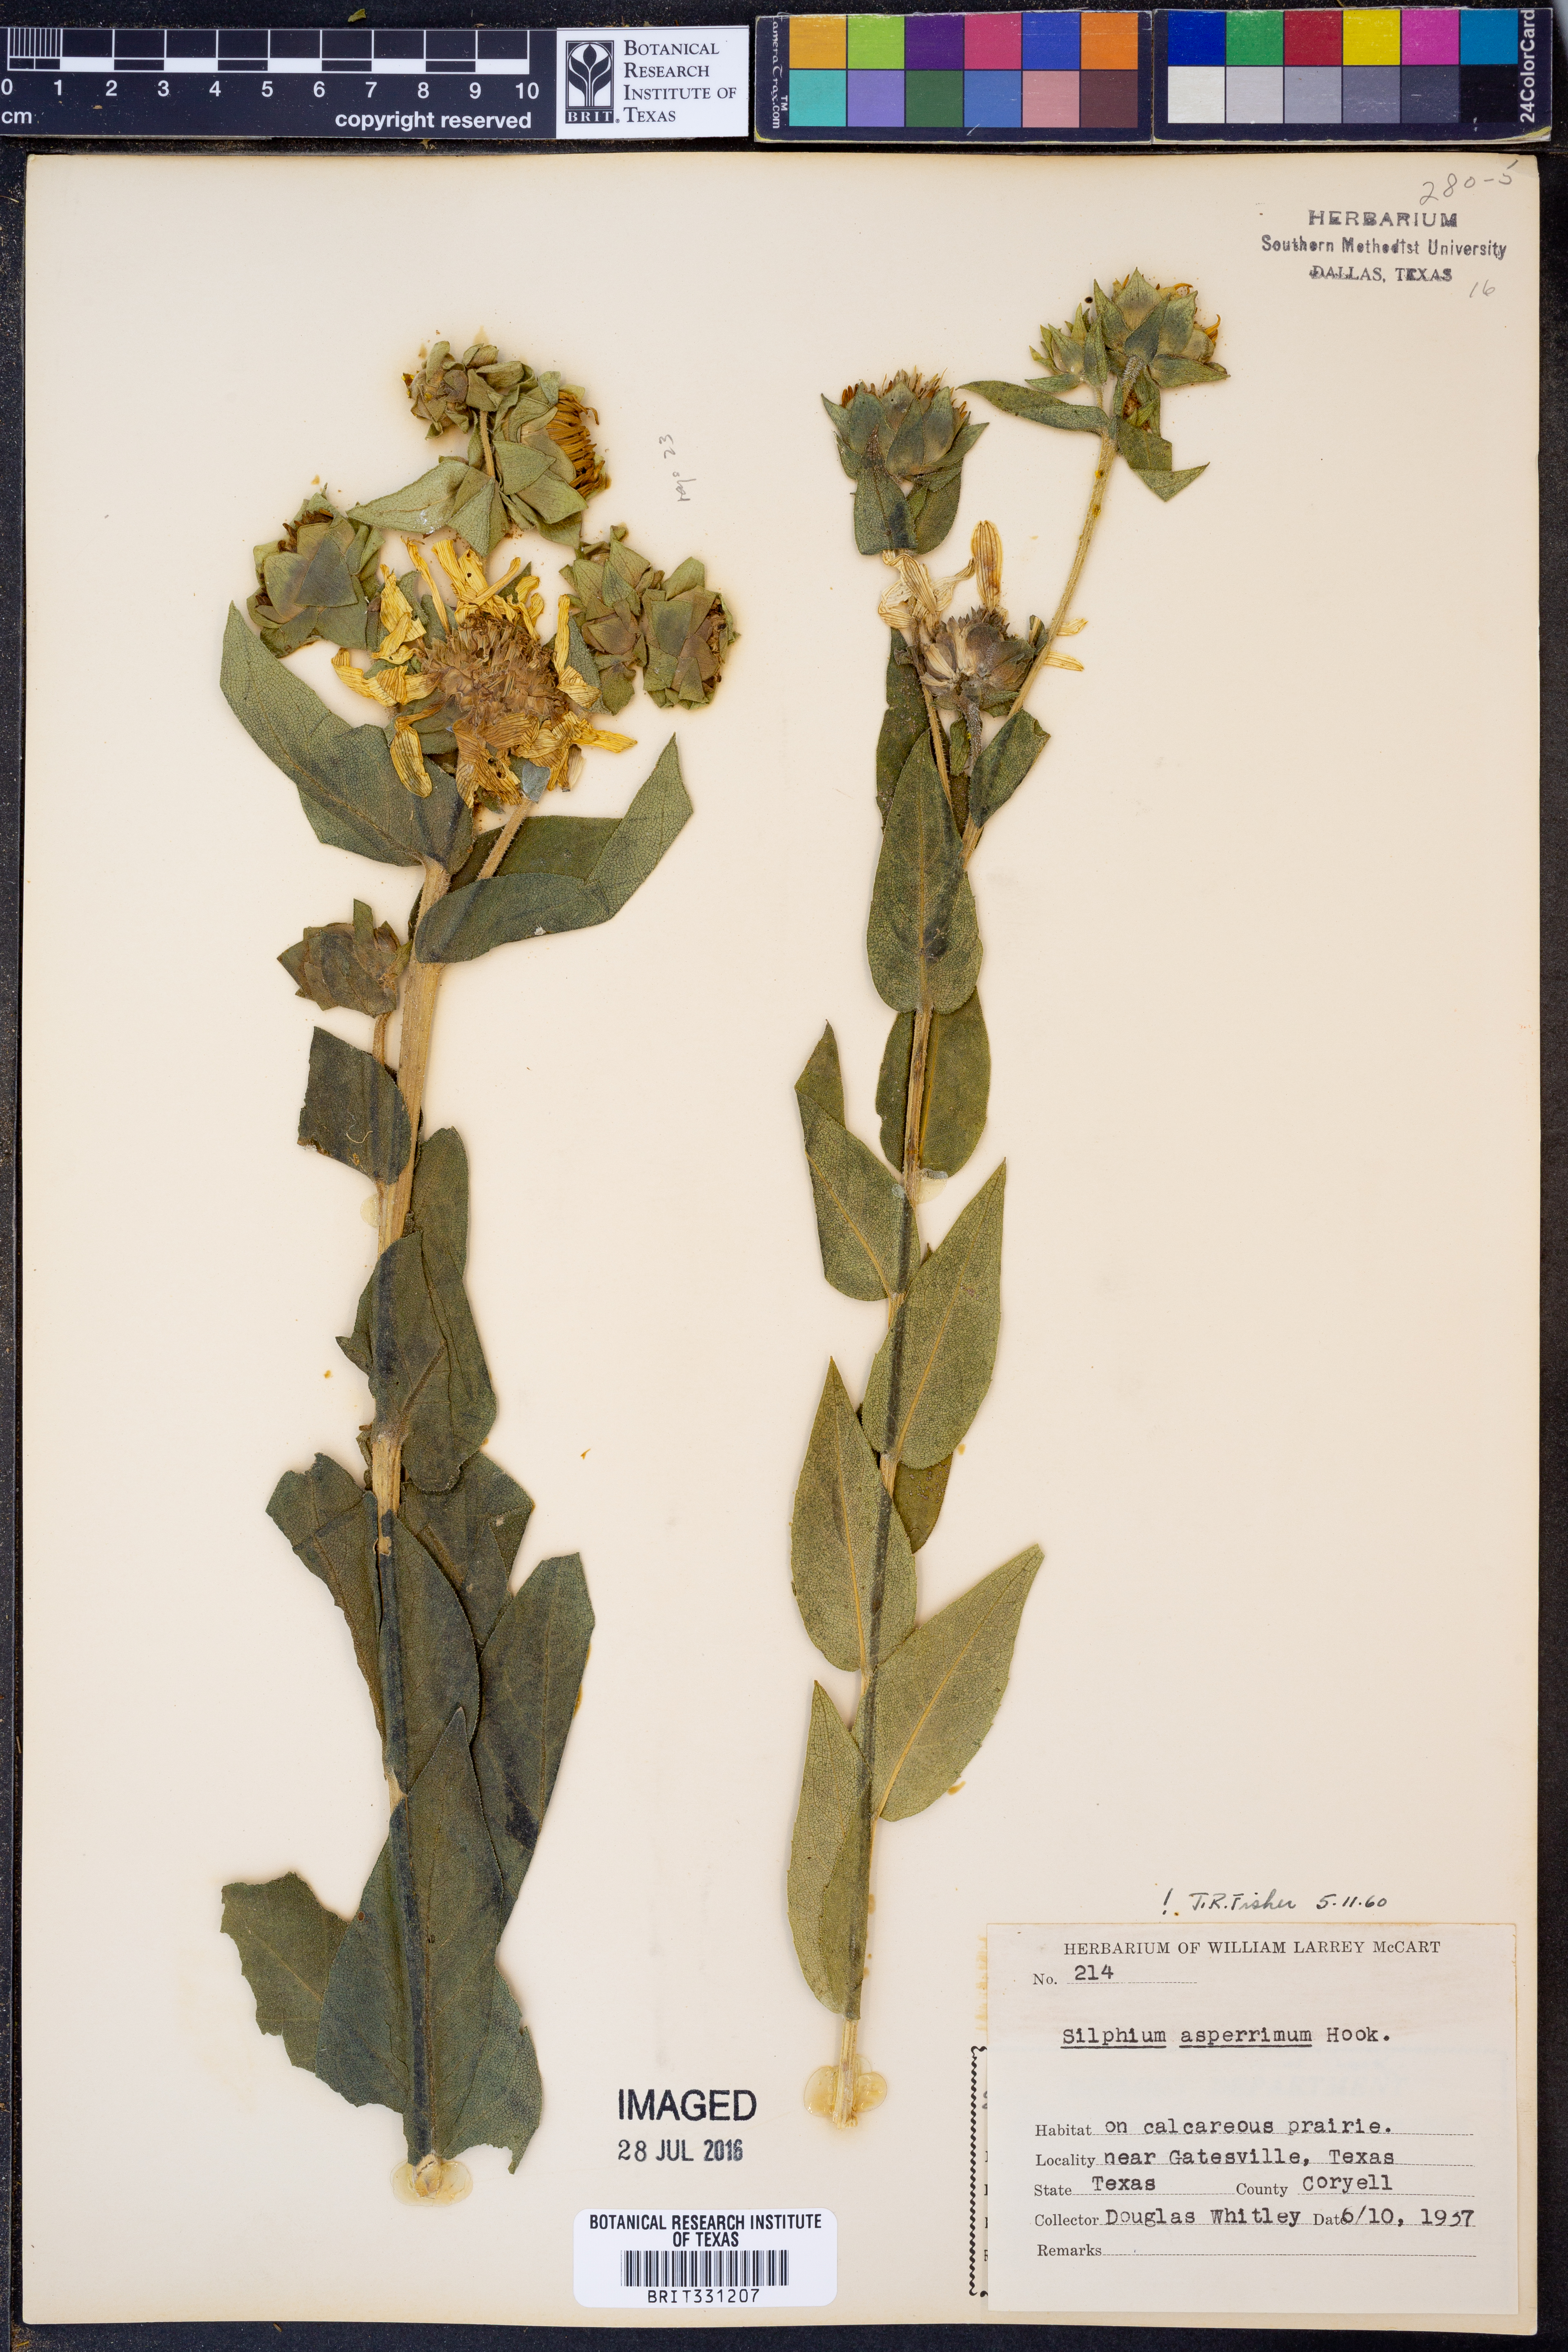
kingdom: Plantae
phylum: Tracheophyta
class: Magnoliopsida
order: Asterales
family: Asteraceae
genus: Silphium
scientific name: Silphium asperrimum
